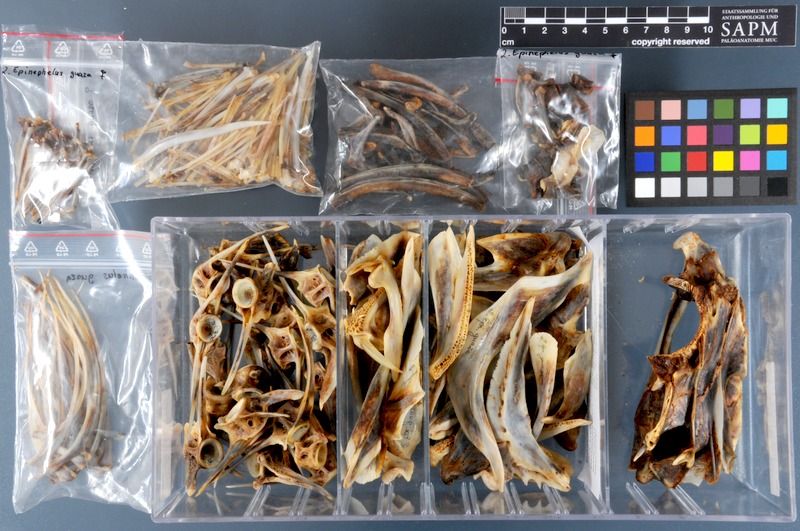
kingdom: Animalia
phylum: Chordata
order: Perciformes
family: Serranidae
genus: Epinephelus
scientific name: Epinephelus marginatus
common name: Dusky grouper
